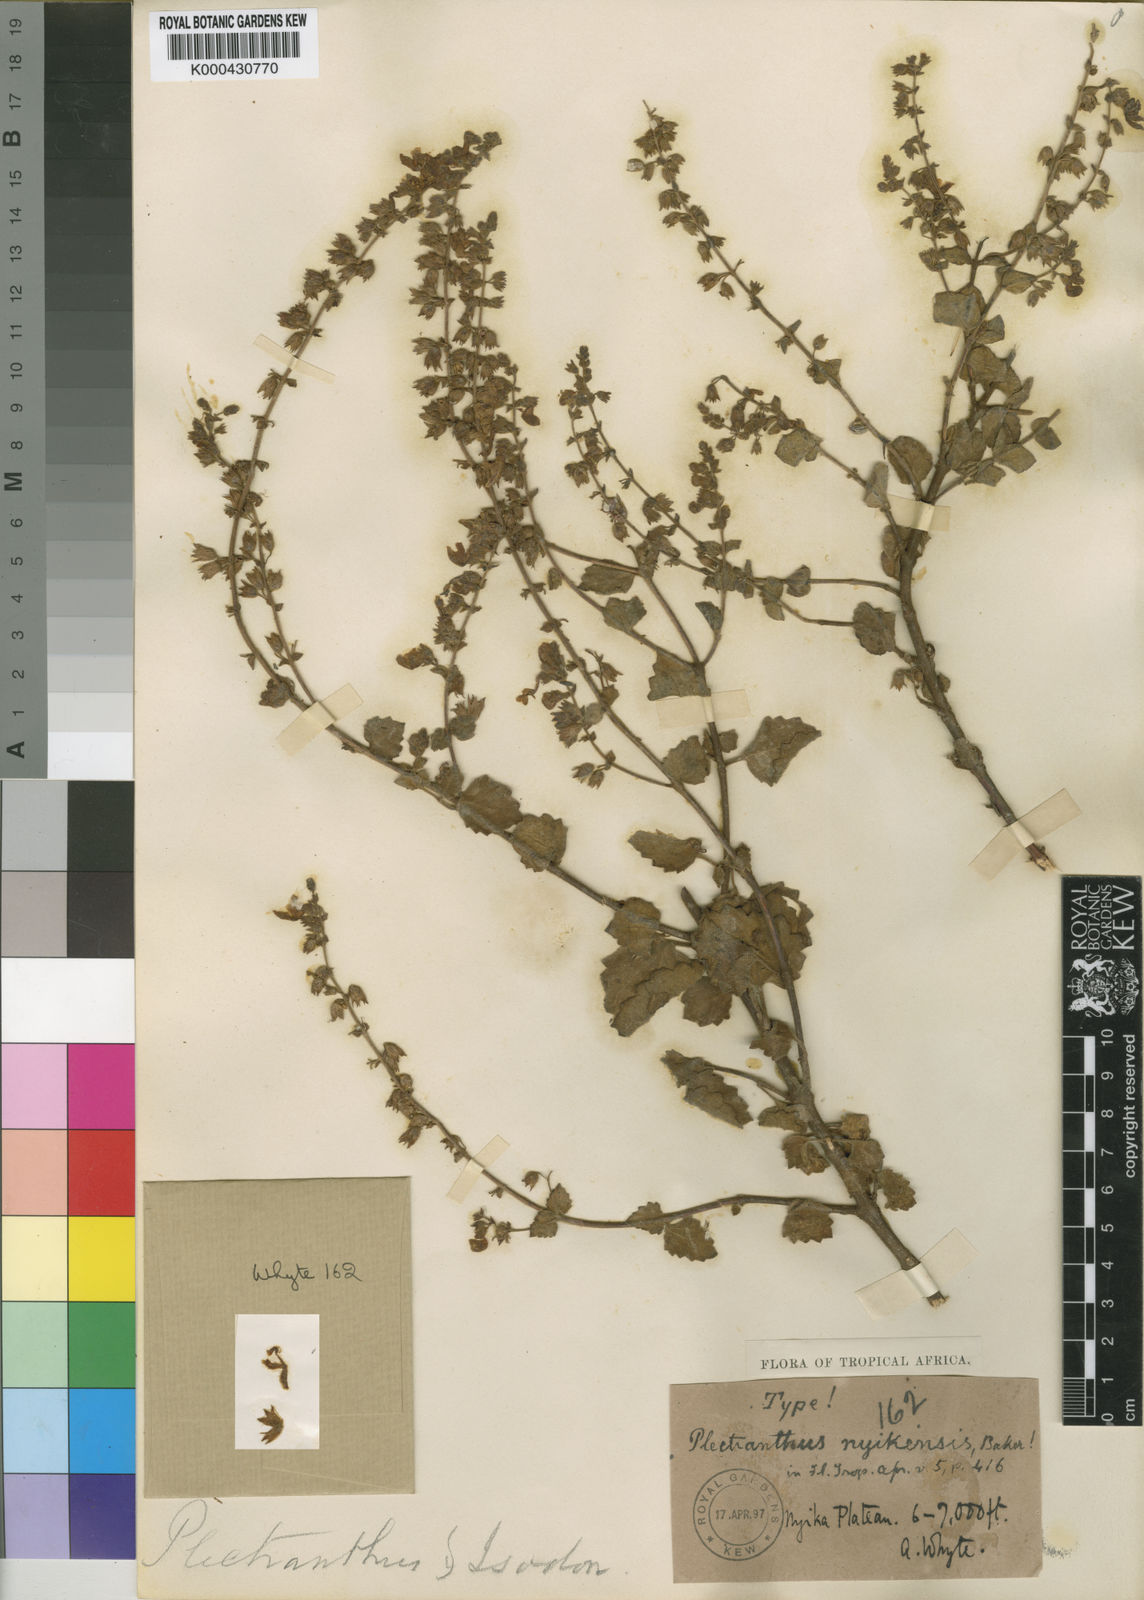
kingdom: Plantae
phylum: Tracheophyta
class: Magnoliopsida
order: Lamiales
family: Lamiaceae
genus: Equilabium
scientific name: Equilabium pubescens
